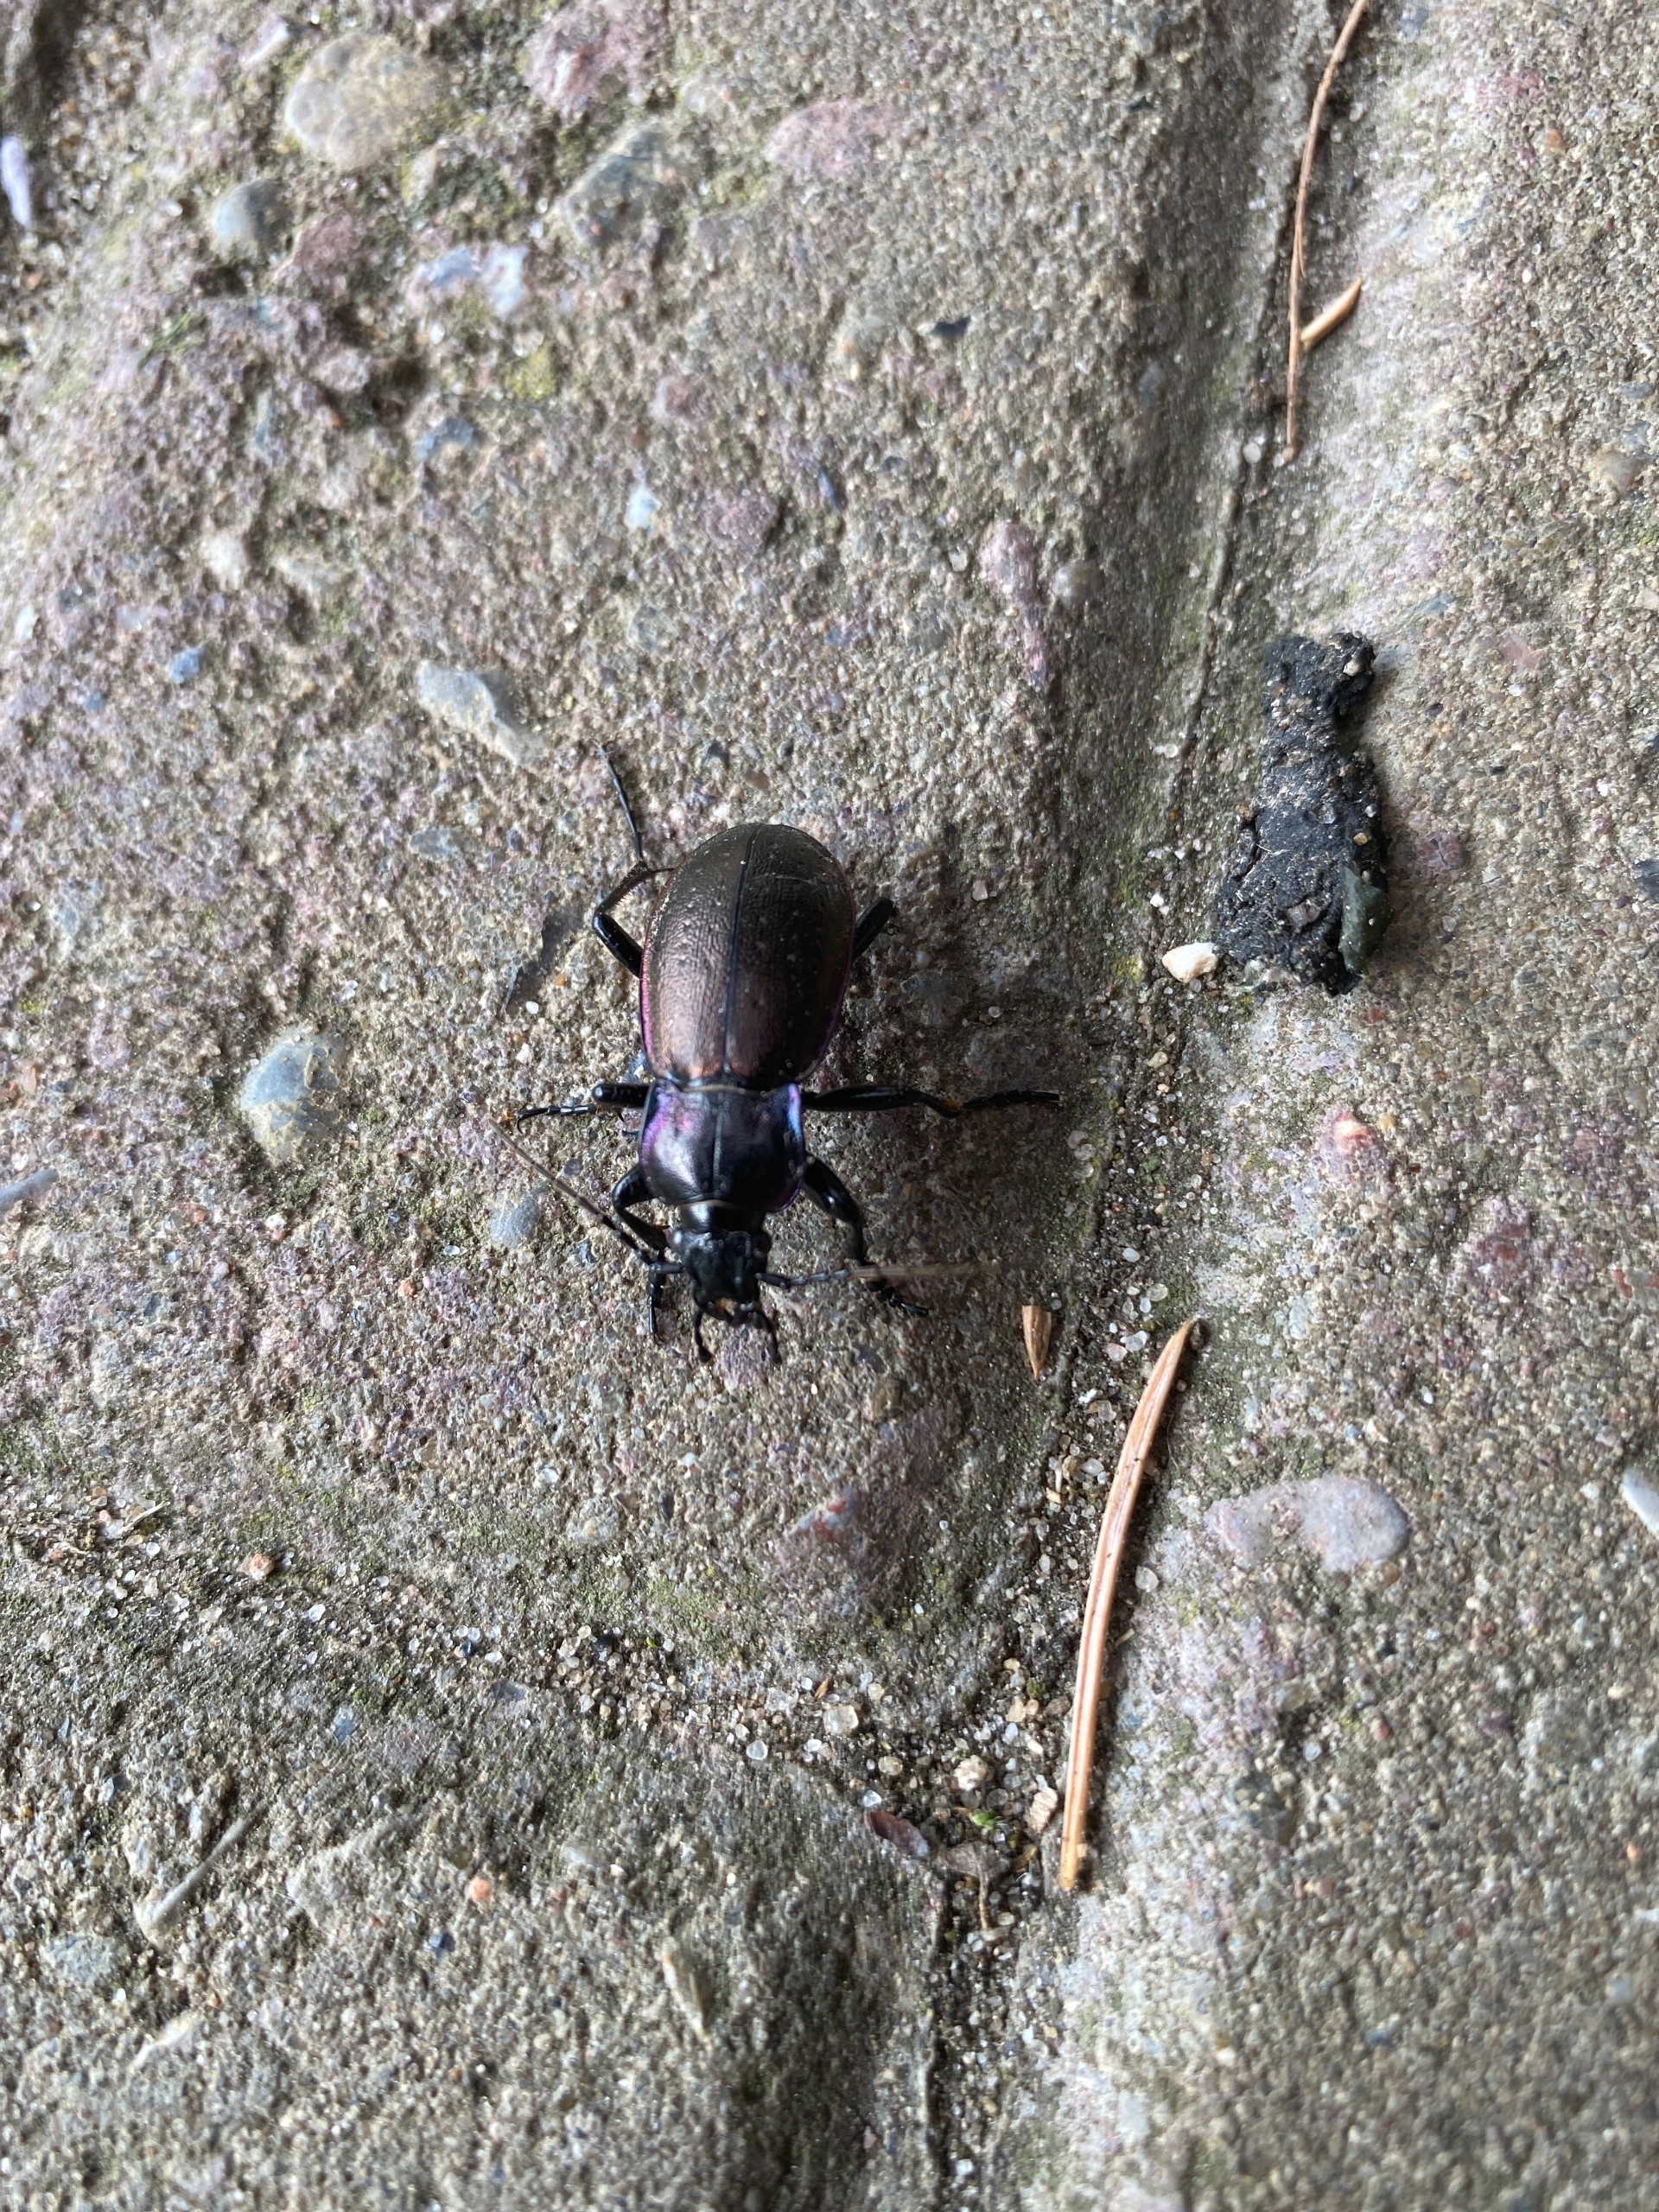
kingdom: Animalia
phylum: Arthropoda
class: Insecta
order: Coleoptera
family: Carabidae
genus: Carabus
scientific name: Carabus nemoralis
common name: Kratløber
